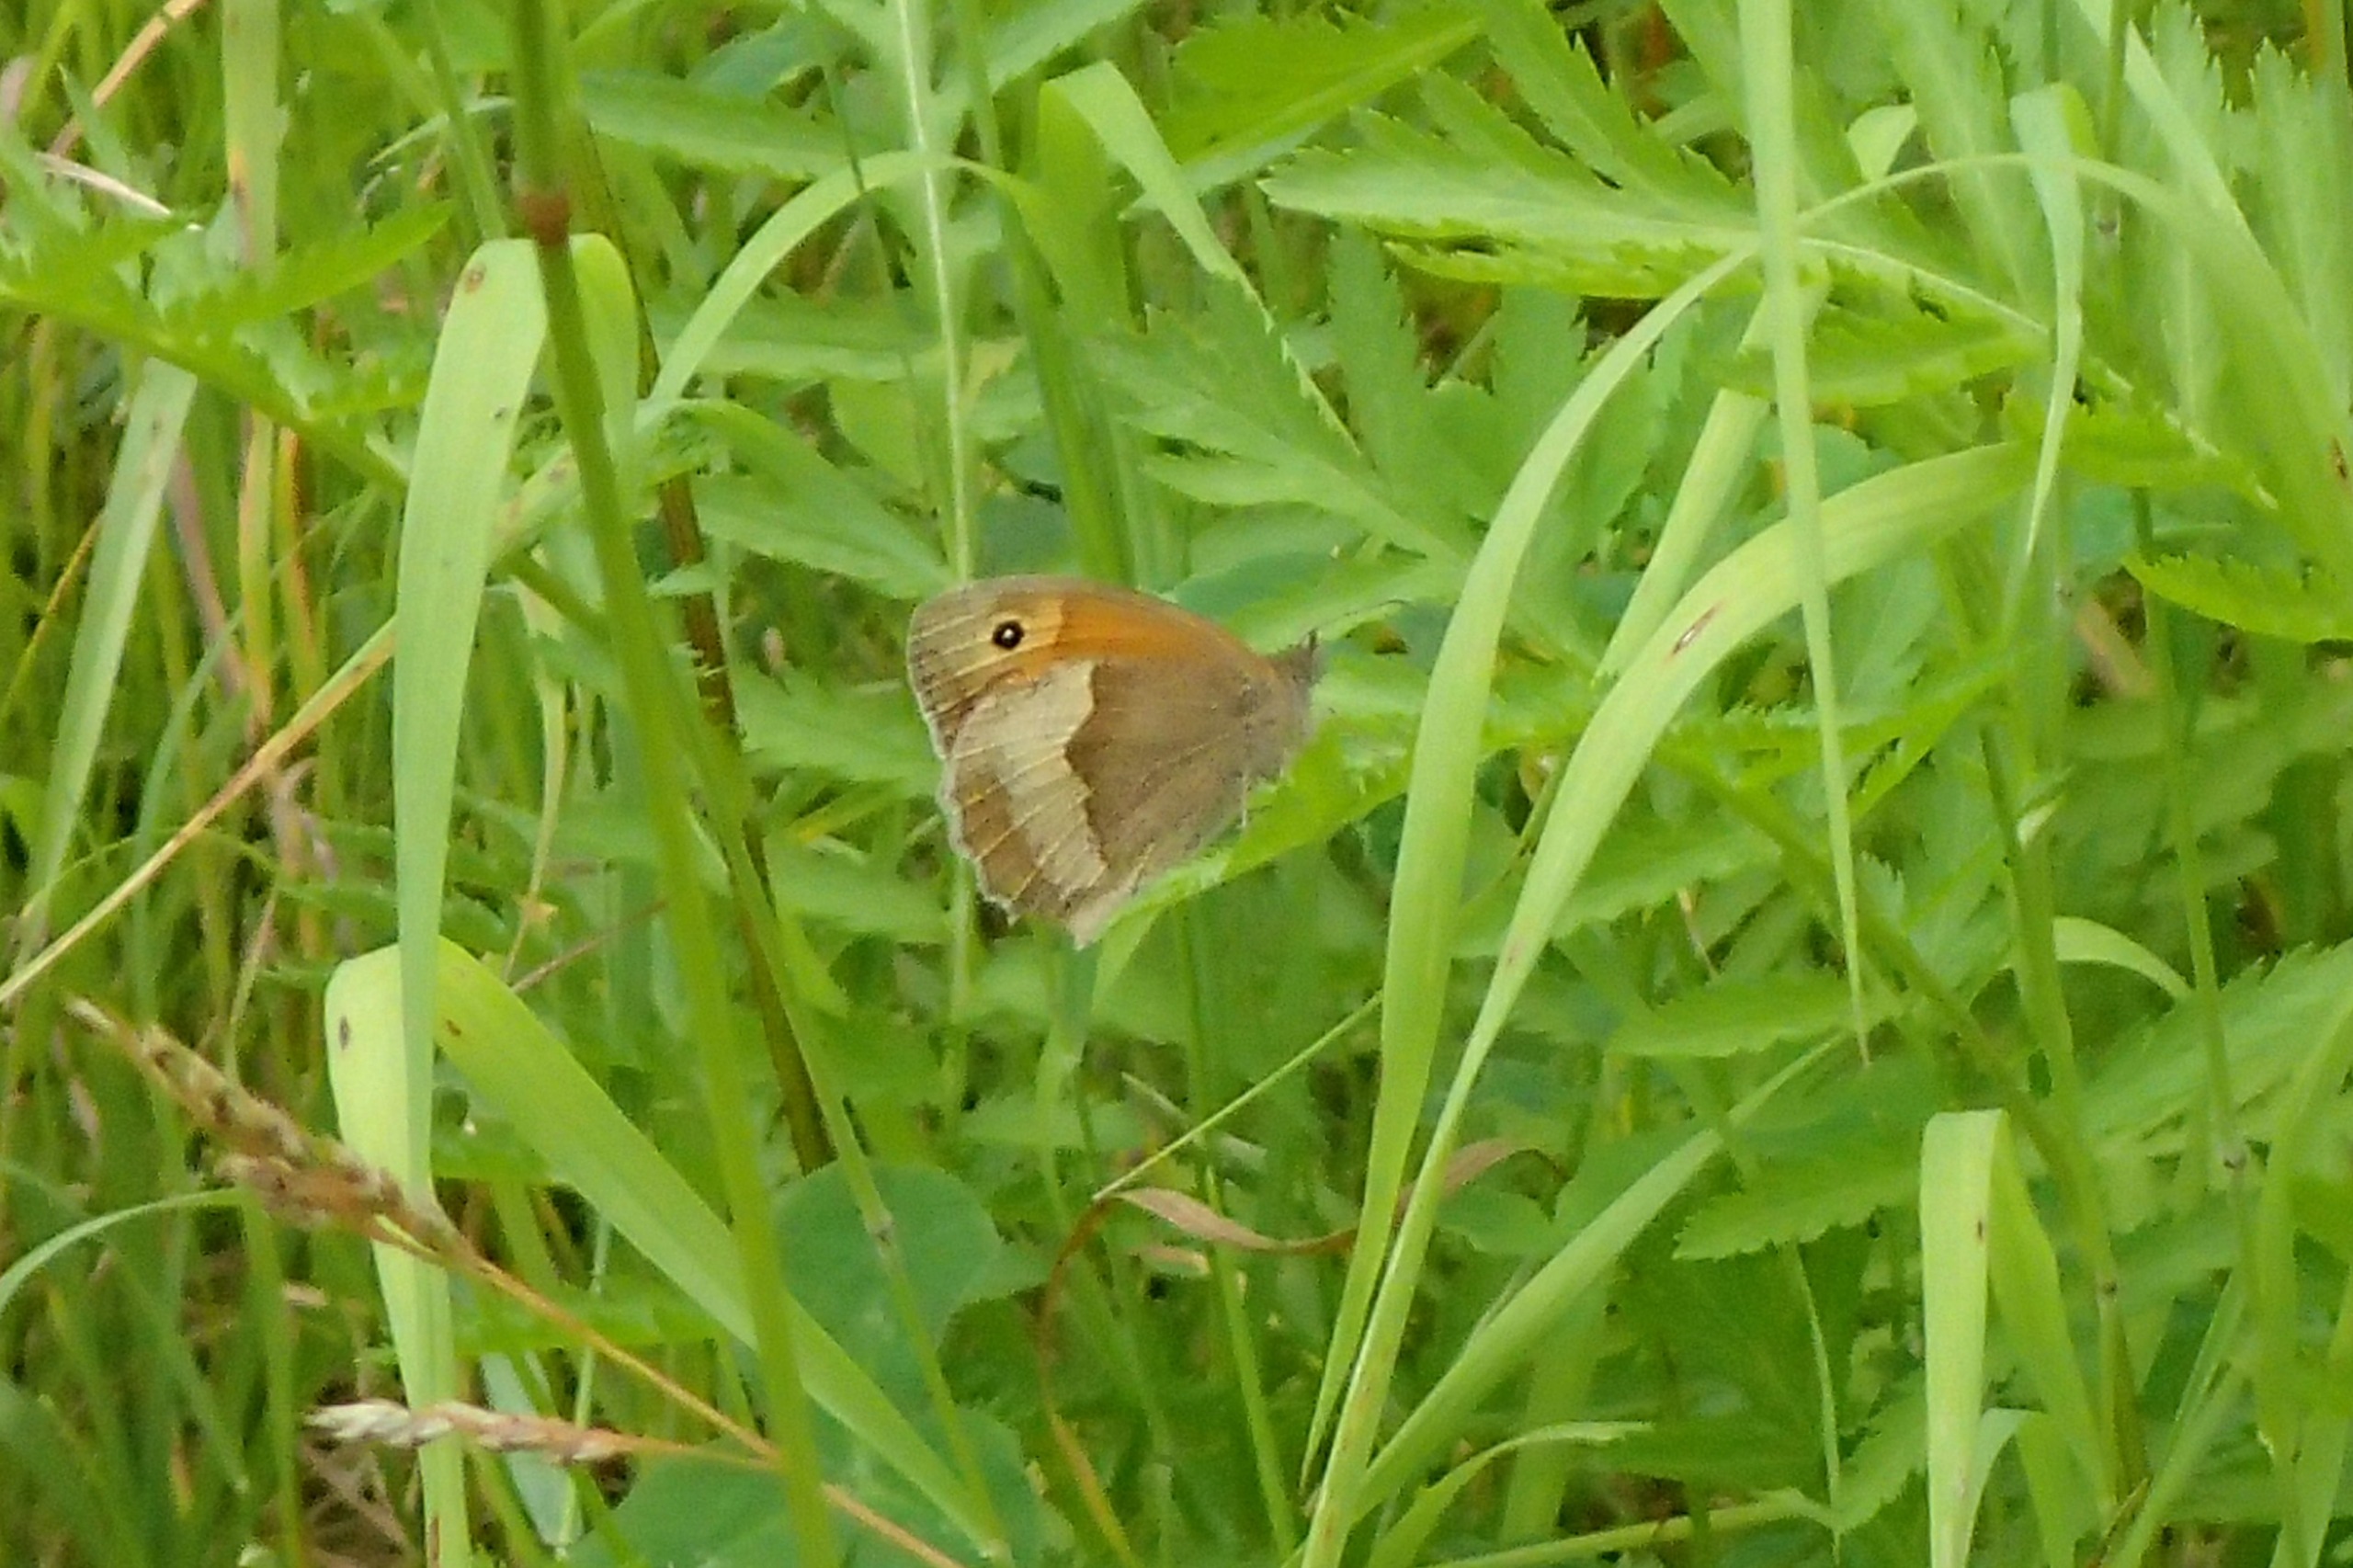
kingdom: Animalia
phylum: Arthropoda
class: Insecta
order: Lepidoptera
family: Nymphalidae
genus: Maniola
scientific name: Maniola jurtina
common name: Græsrandøje
